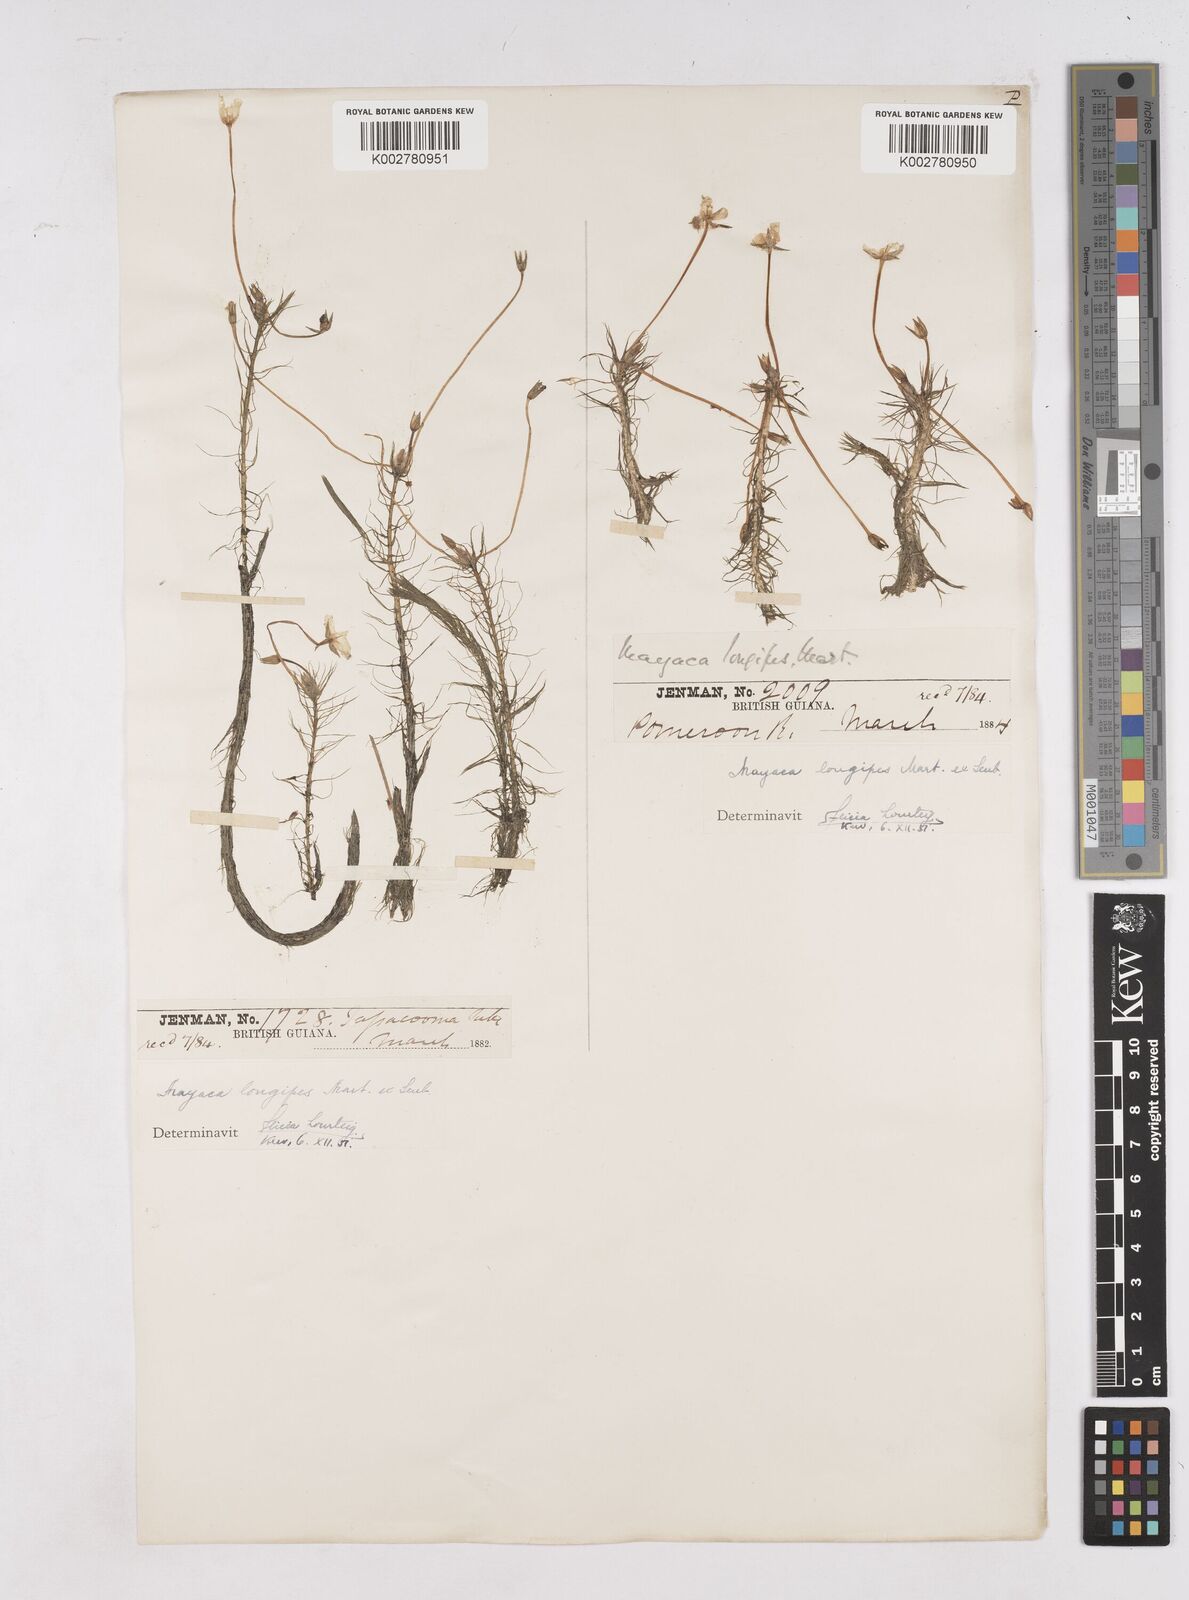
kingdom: Plantae
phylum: Tracheophyta
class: Liliopsida
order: Poales
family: Mayacaceae
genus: Mayaca
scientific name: Mayaca fluviatilis
